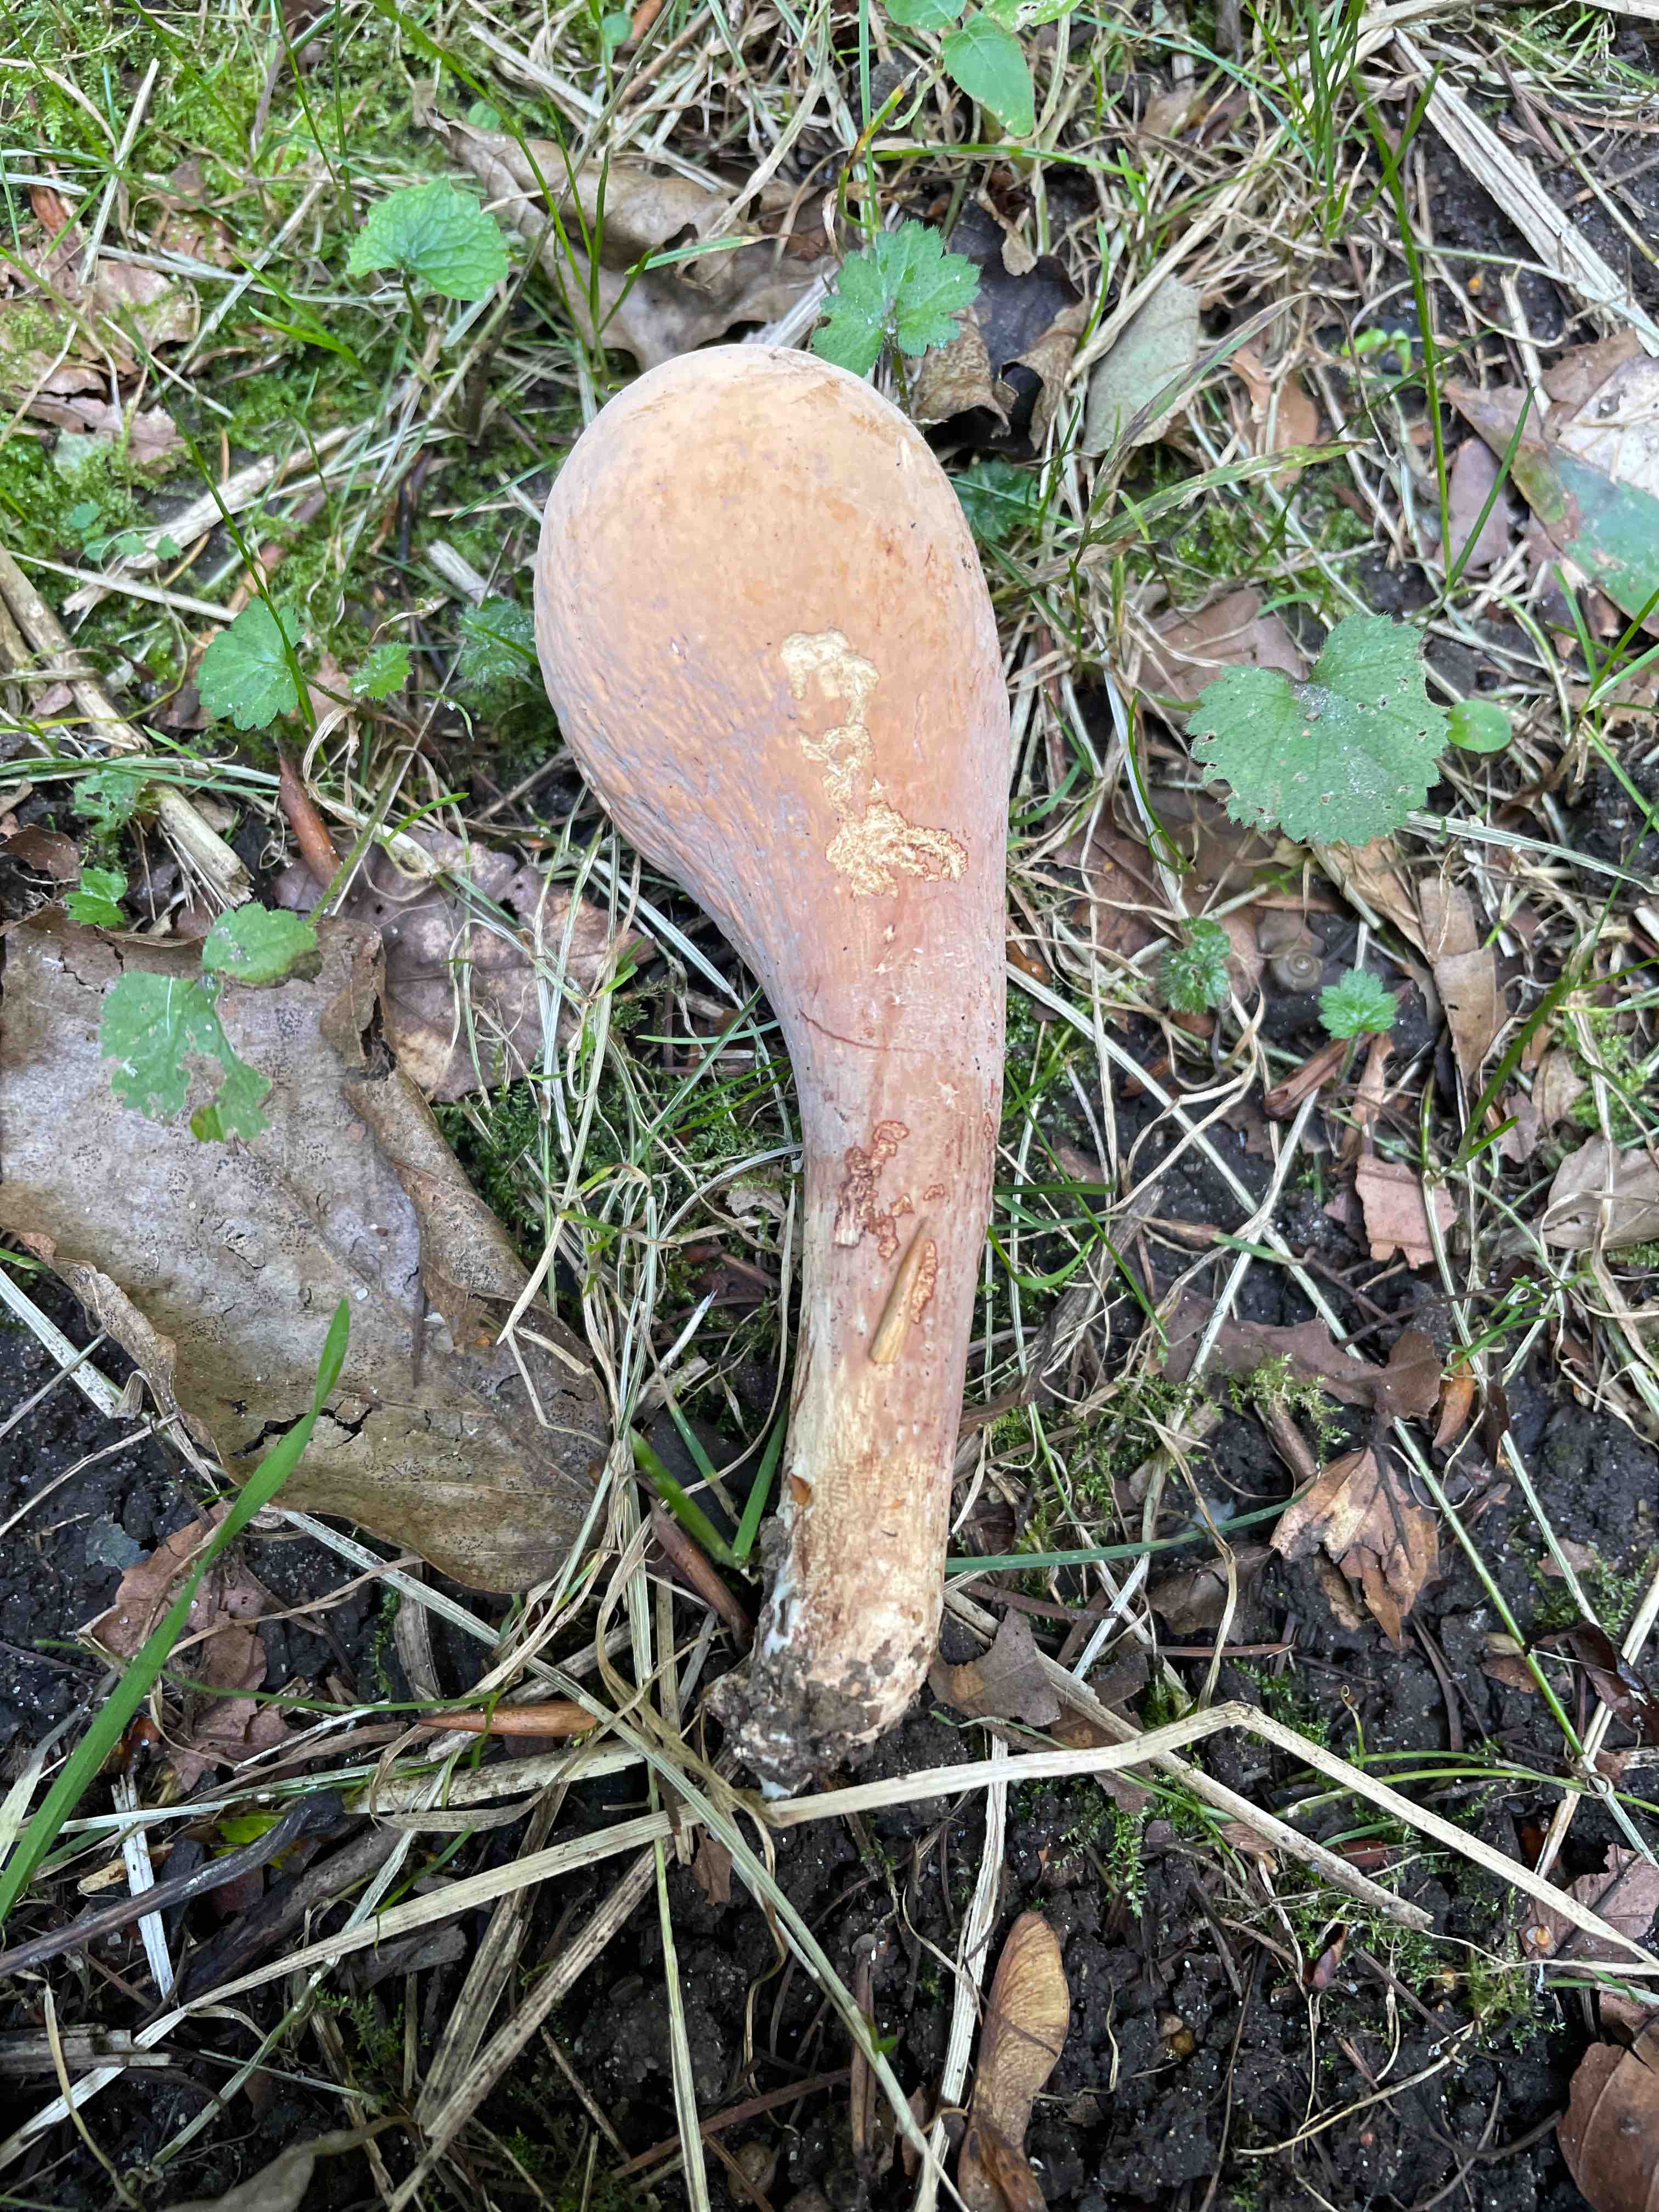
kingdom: Fungi
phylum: Basidiomycota
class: Agaricomycetes
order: Gomphales
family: Clavariadelphaceae
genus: Clavariadelphus
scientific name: Clavariadelphus pistillaris
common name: herkules-kæmpekølle
